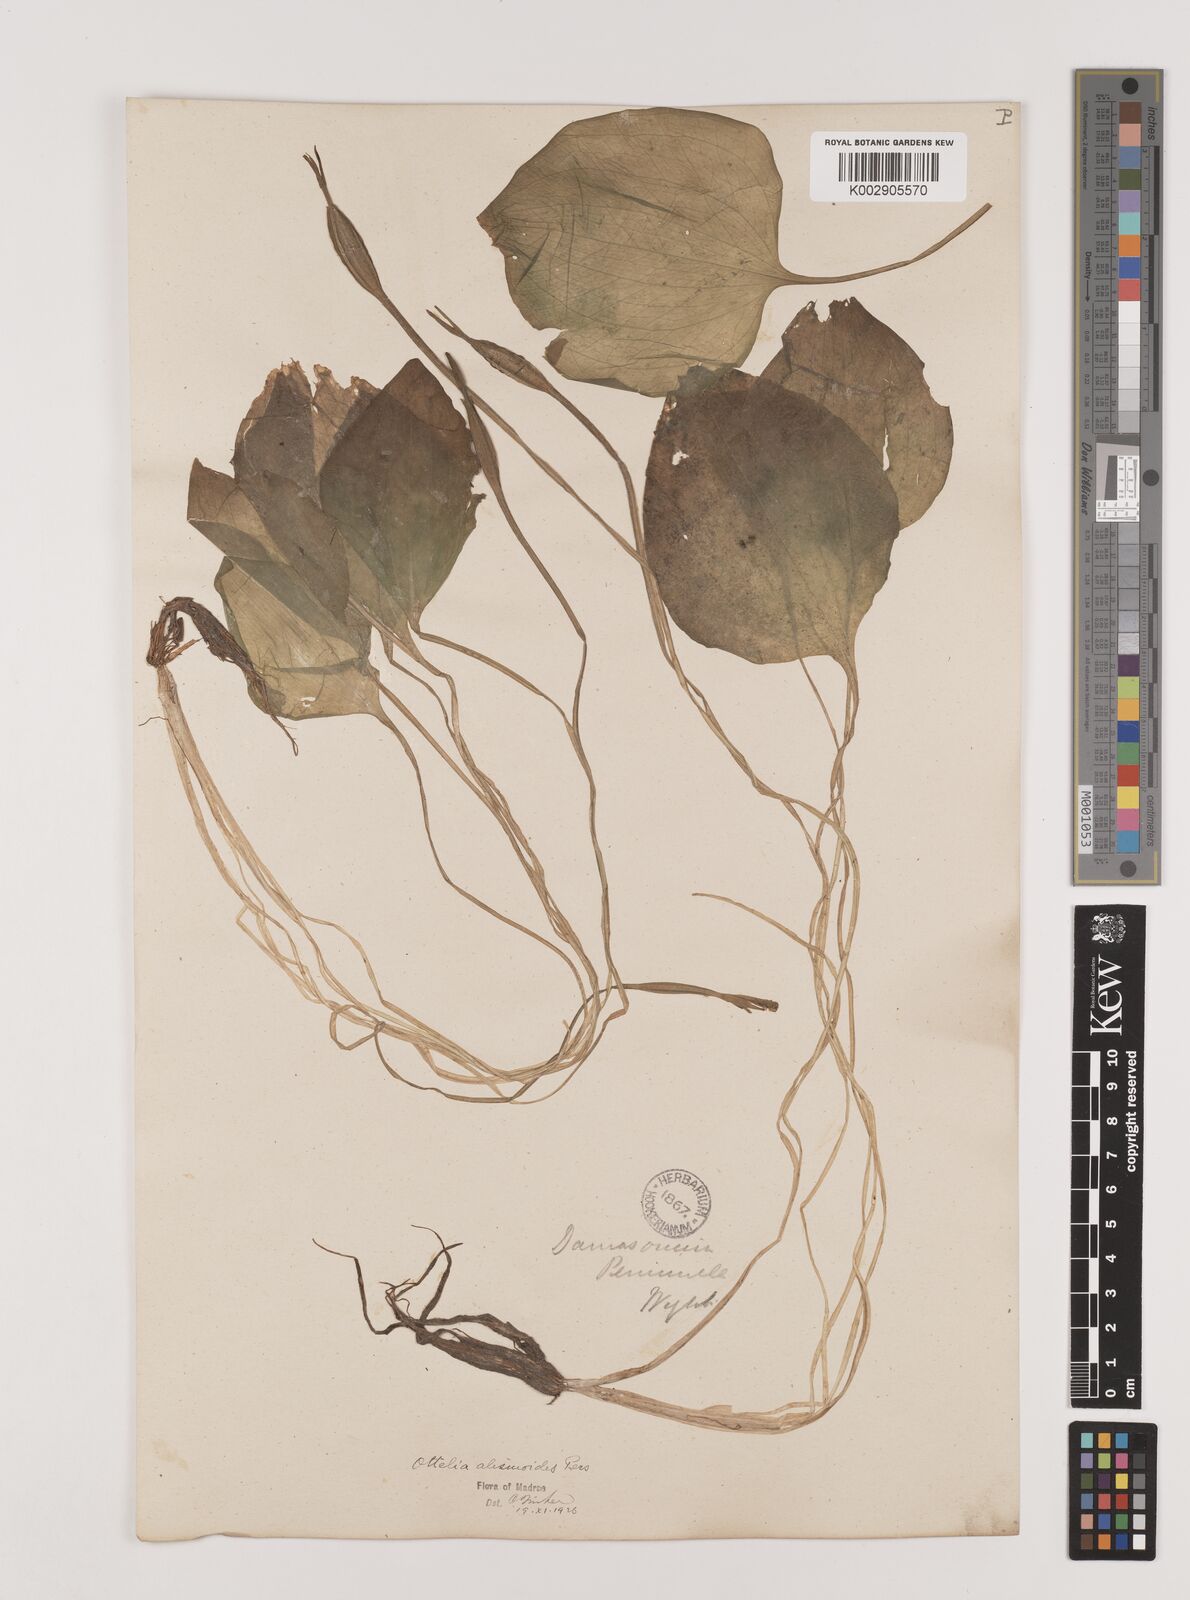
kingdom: Plantae
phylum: Tracheophyta
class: Liliopsida
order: Alismatales
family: Hydrocharitaceae
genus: Ottelia
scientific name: Ottelia alismoides
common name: Duck-lettuce
